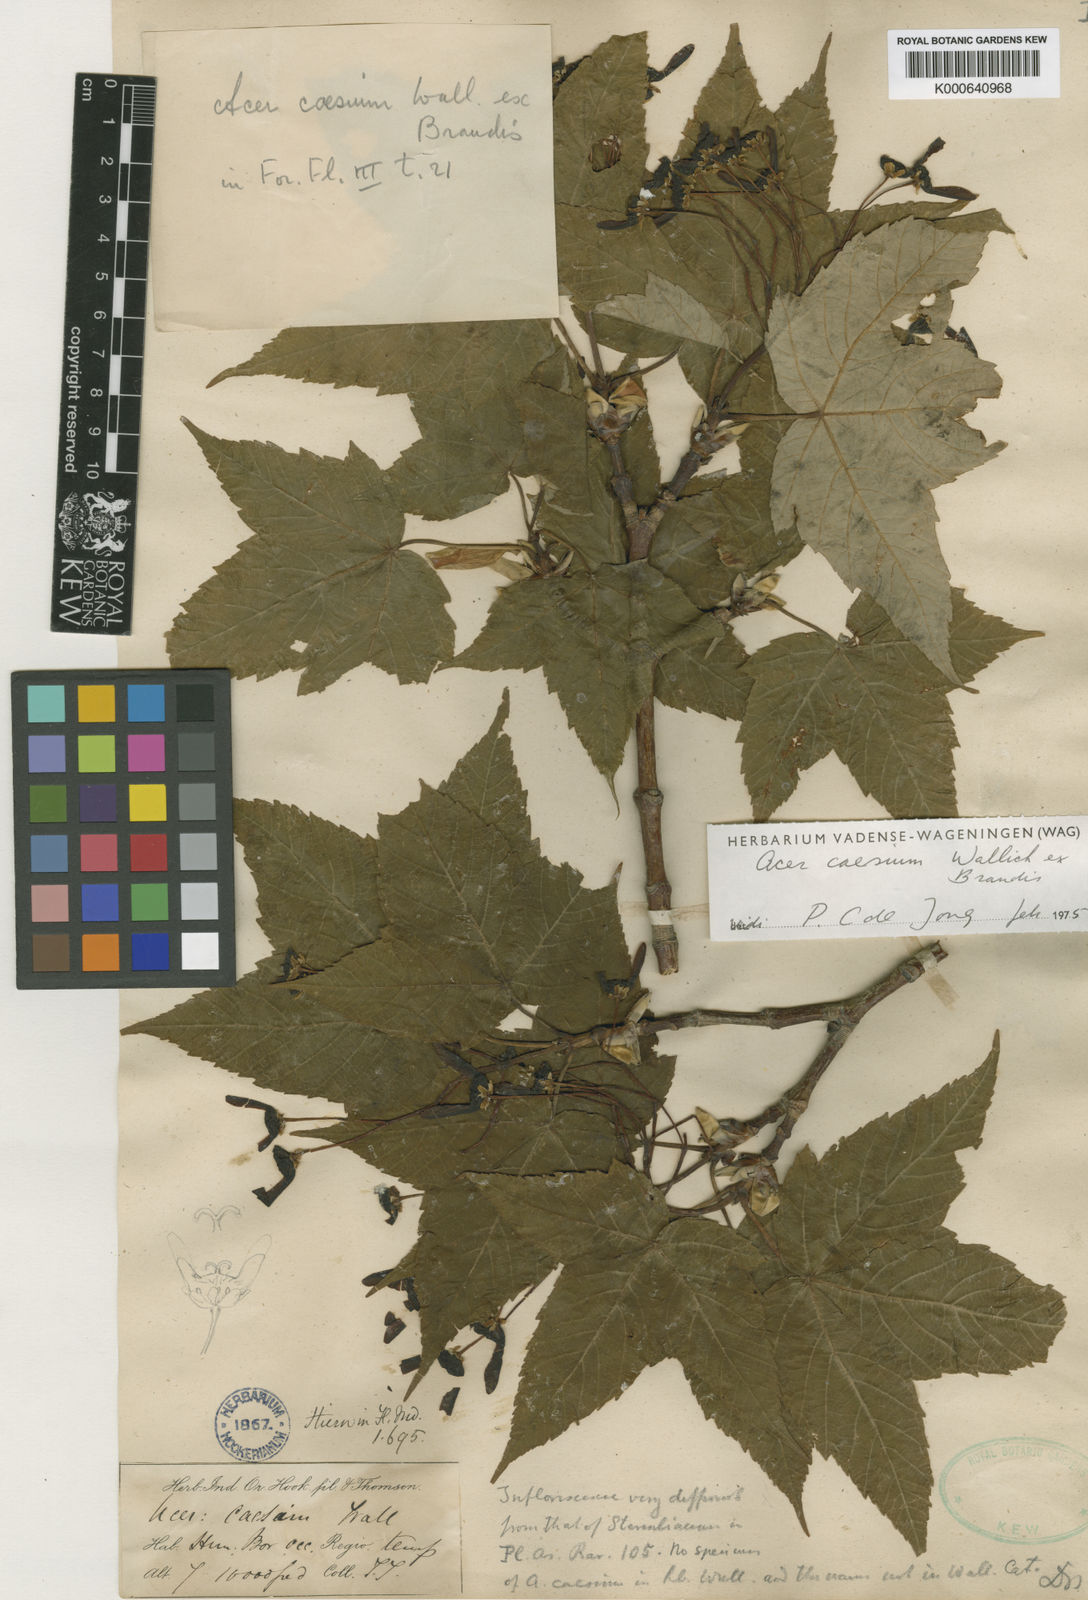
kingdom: Plantae
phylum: Tracheophyta
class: Magnoliopsida
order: Sapindales
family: Sapindaceae
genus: Acer
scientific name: Acer caesium
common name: Indian maple
